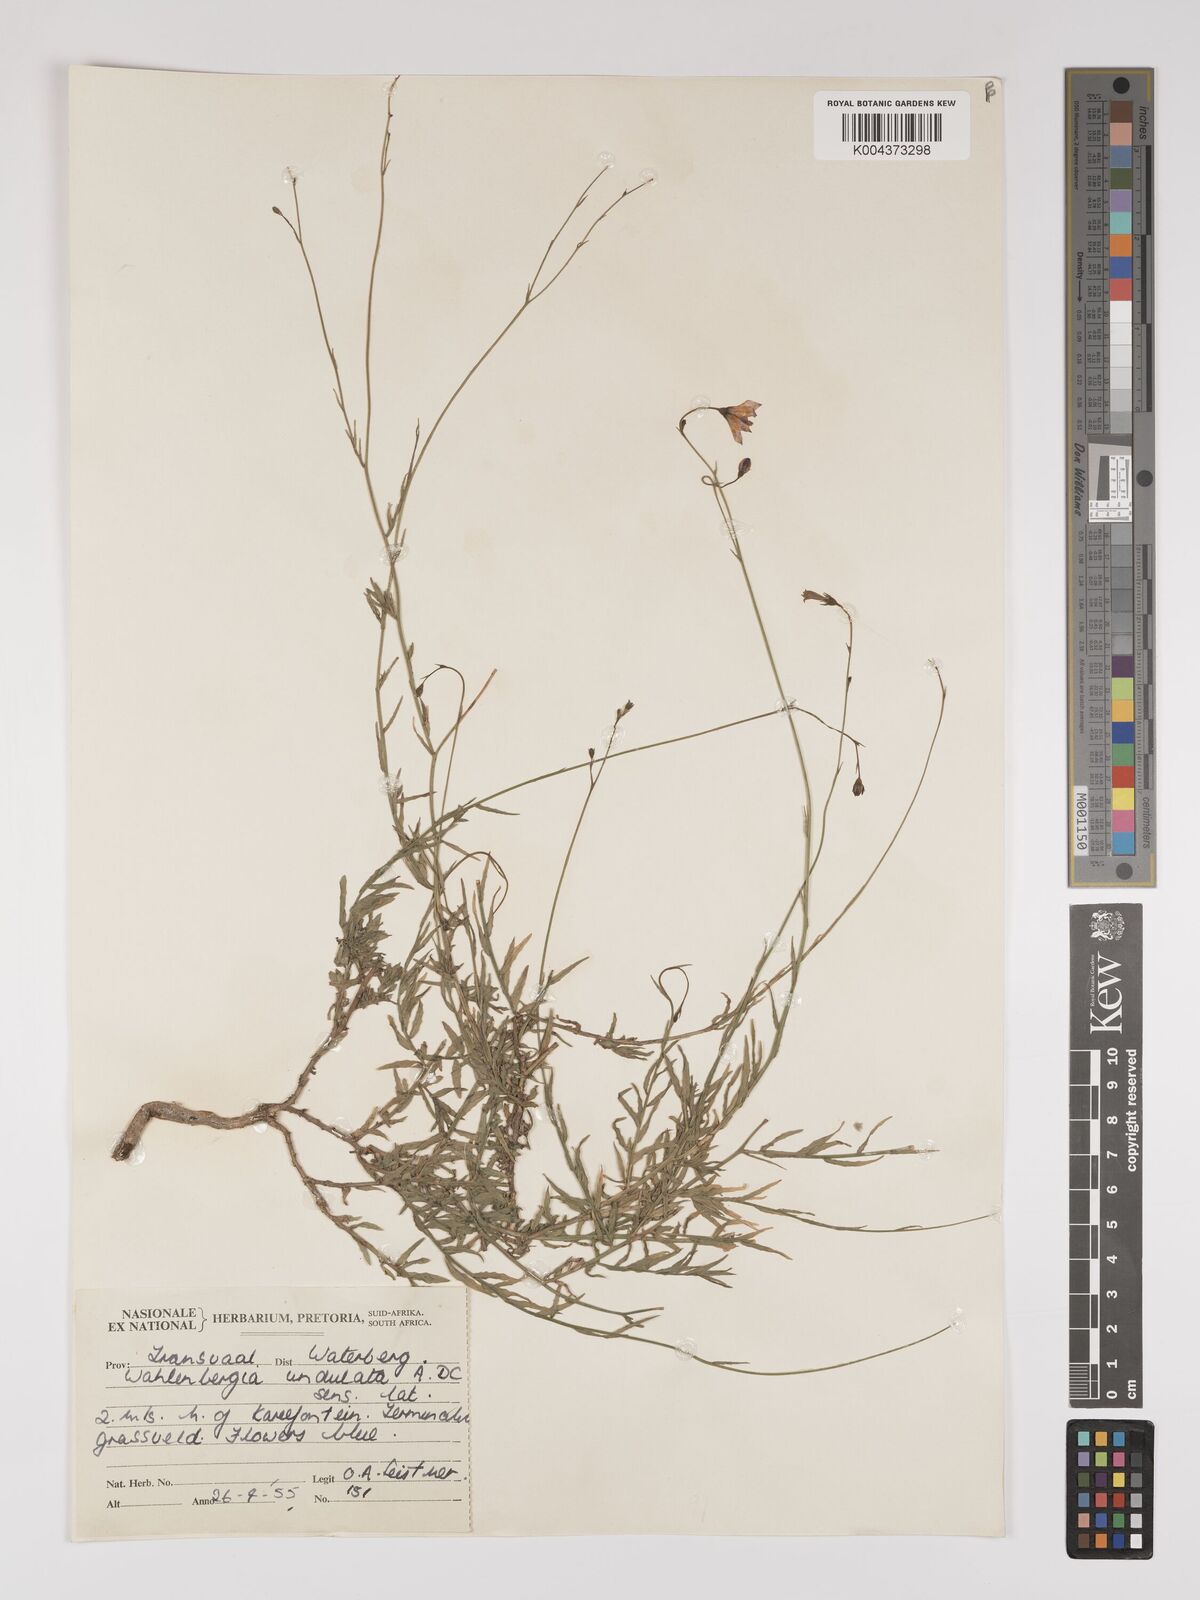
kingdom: Plantae
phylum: Tracheophyta
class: Magnoliopsida
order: Asterales
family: Campanulaceae
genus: Wahlenbergia
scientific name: Wahlenbergia undulata
